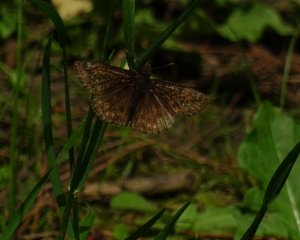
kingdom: Animalia
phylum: Arthropoda
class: Insecta
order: Lepidoptera
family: Hesperiidae
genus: Gesta
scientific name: Gesta
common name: Juvenal's Duskywing
